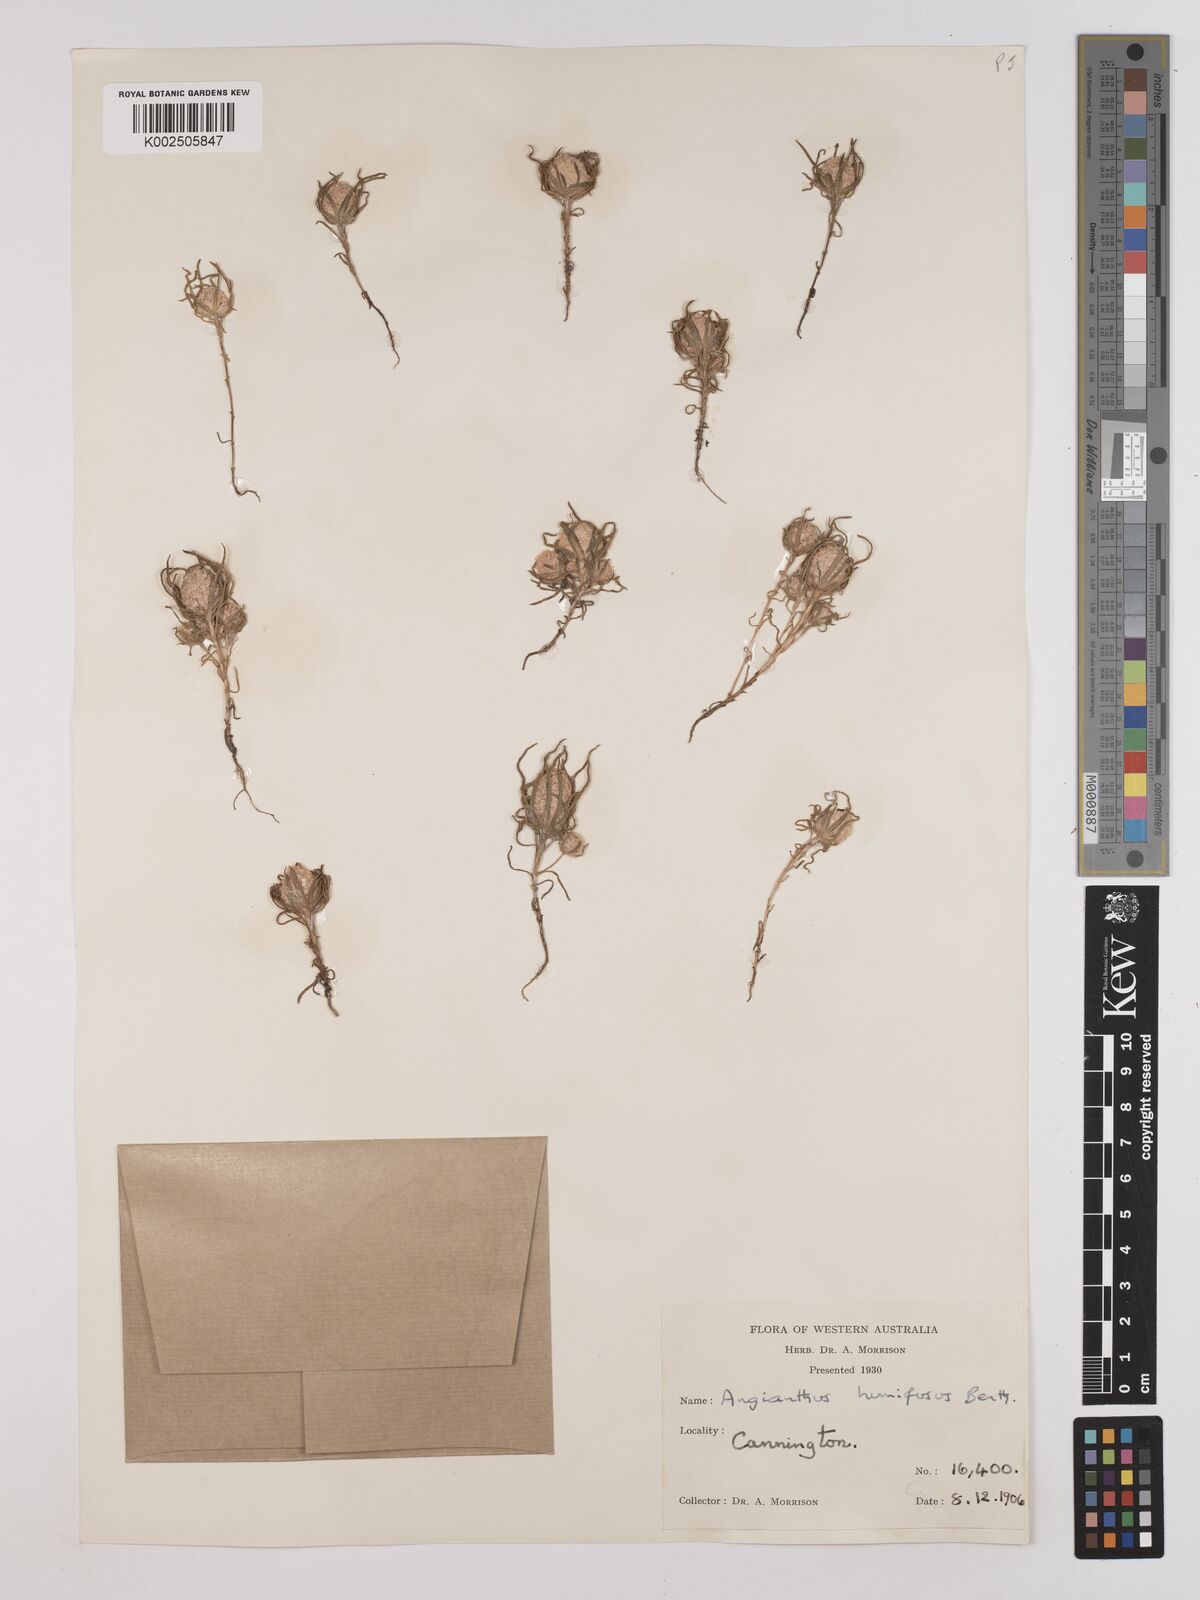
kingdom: Plantae
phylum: Tracheophyta
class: Magnoliopsida
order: Asterales
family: Asteraceae
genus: Siloxerus
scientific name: Siloxerus humifusus
